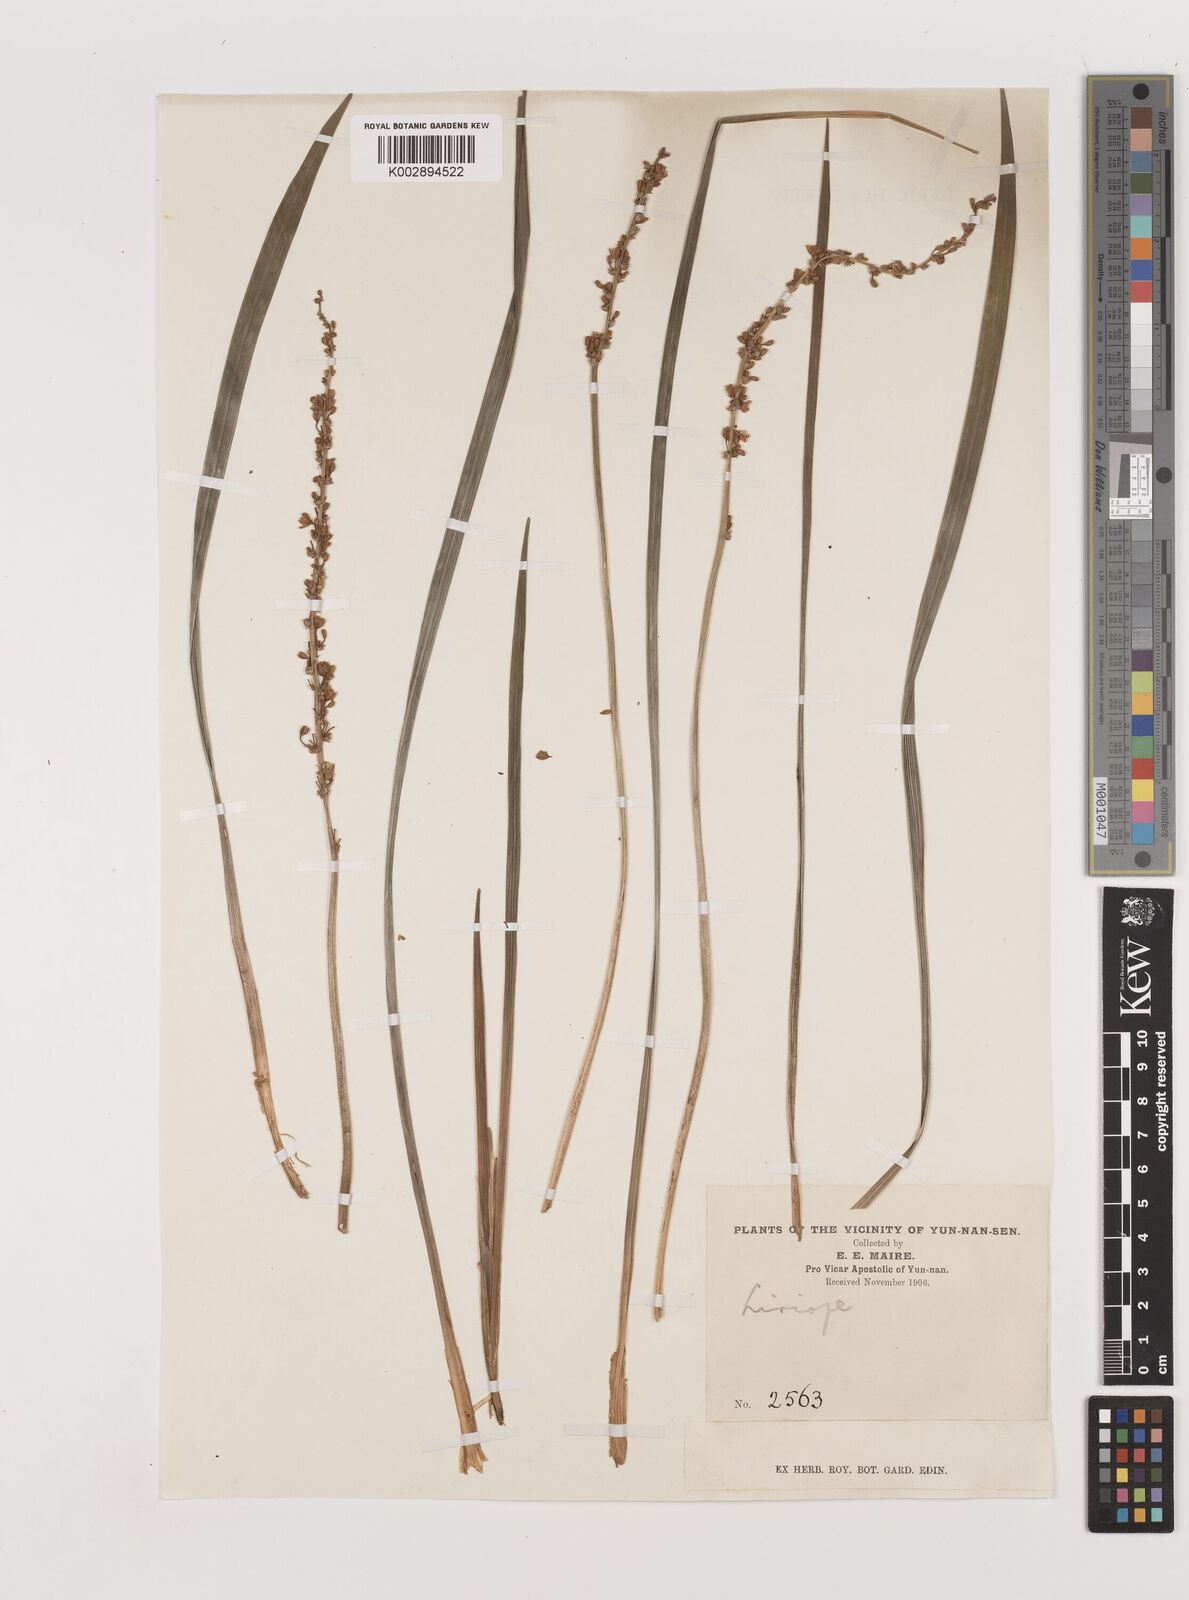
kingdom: Plantae
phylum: Tracheophyta
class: Liliopsida
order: Asparagales
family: Asparagaceae
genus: Liriope
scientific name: Liriope spicata
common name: Creeping liriope
